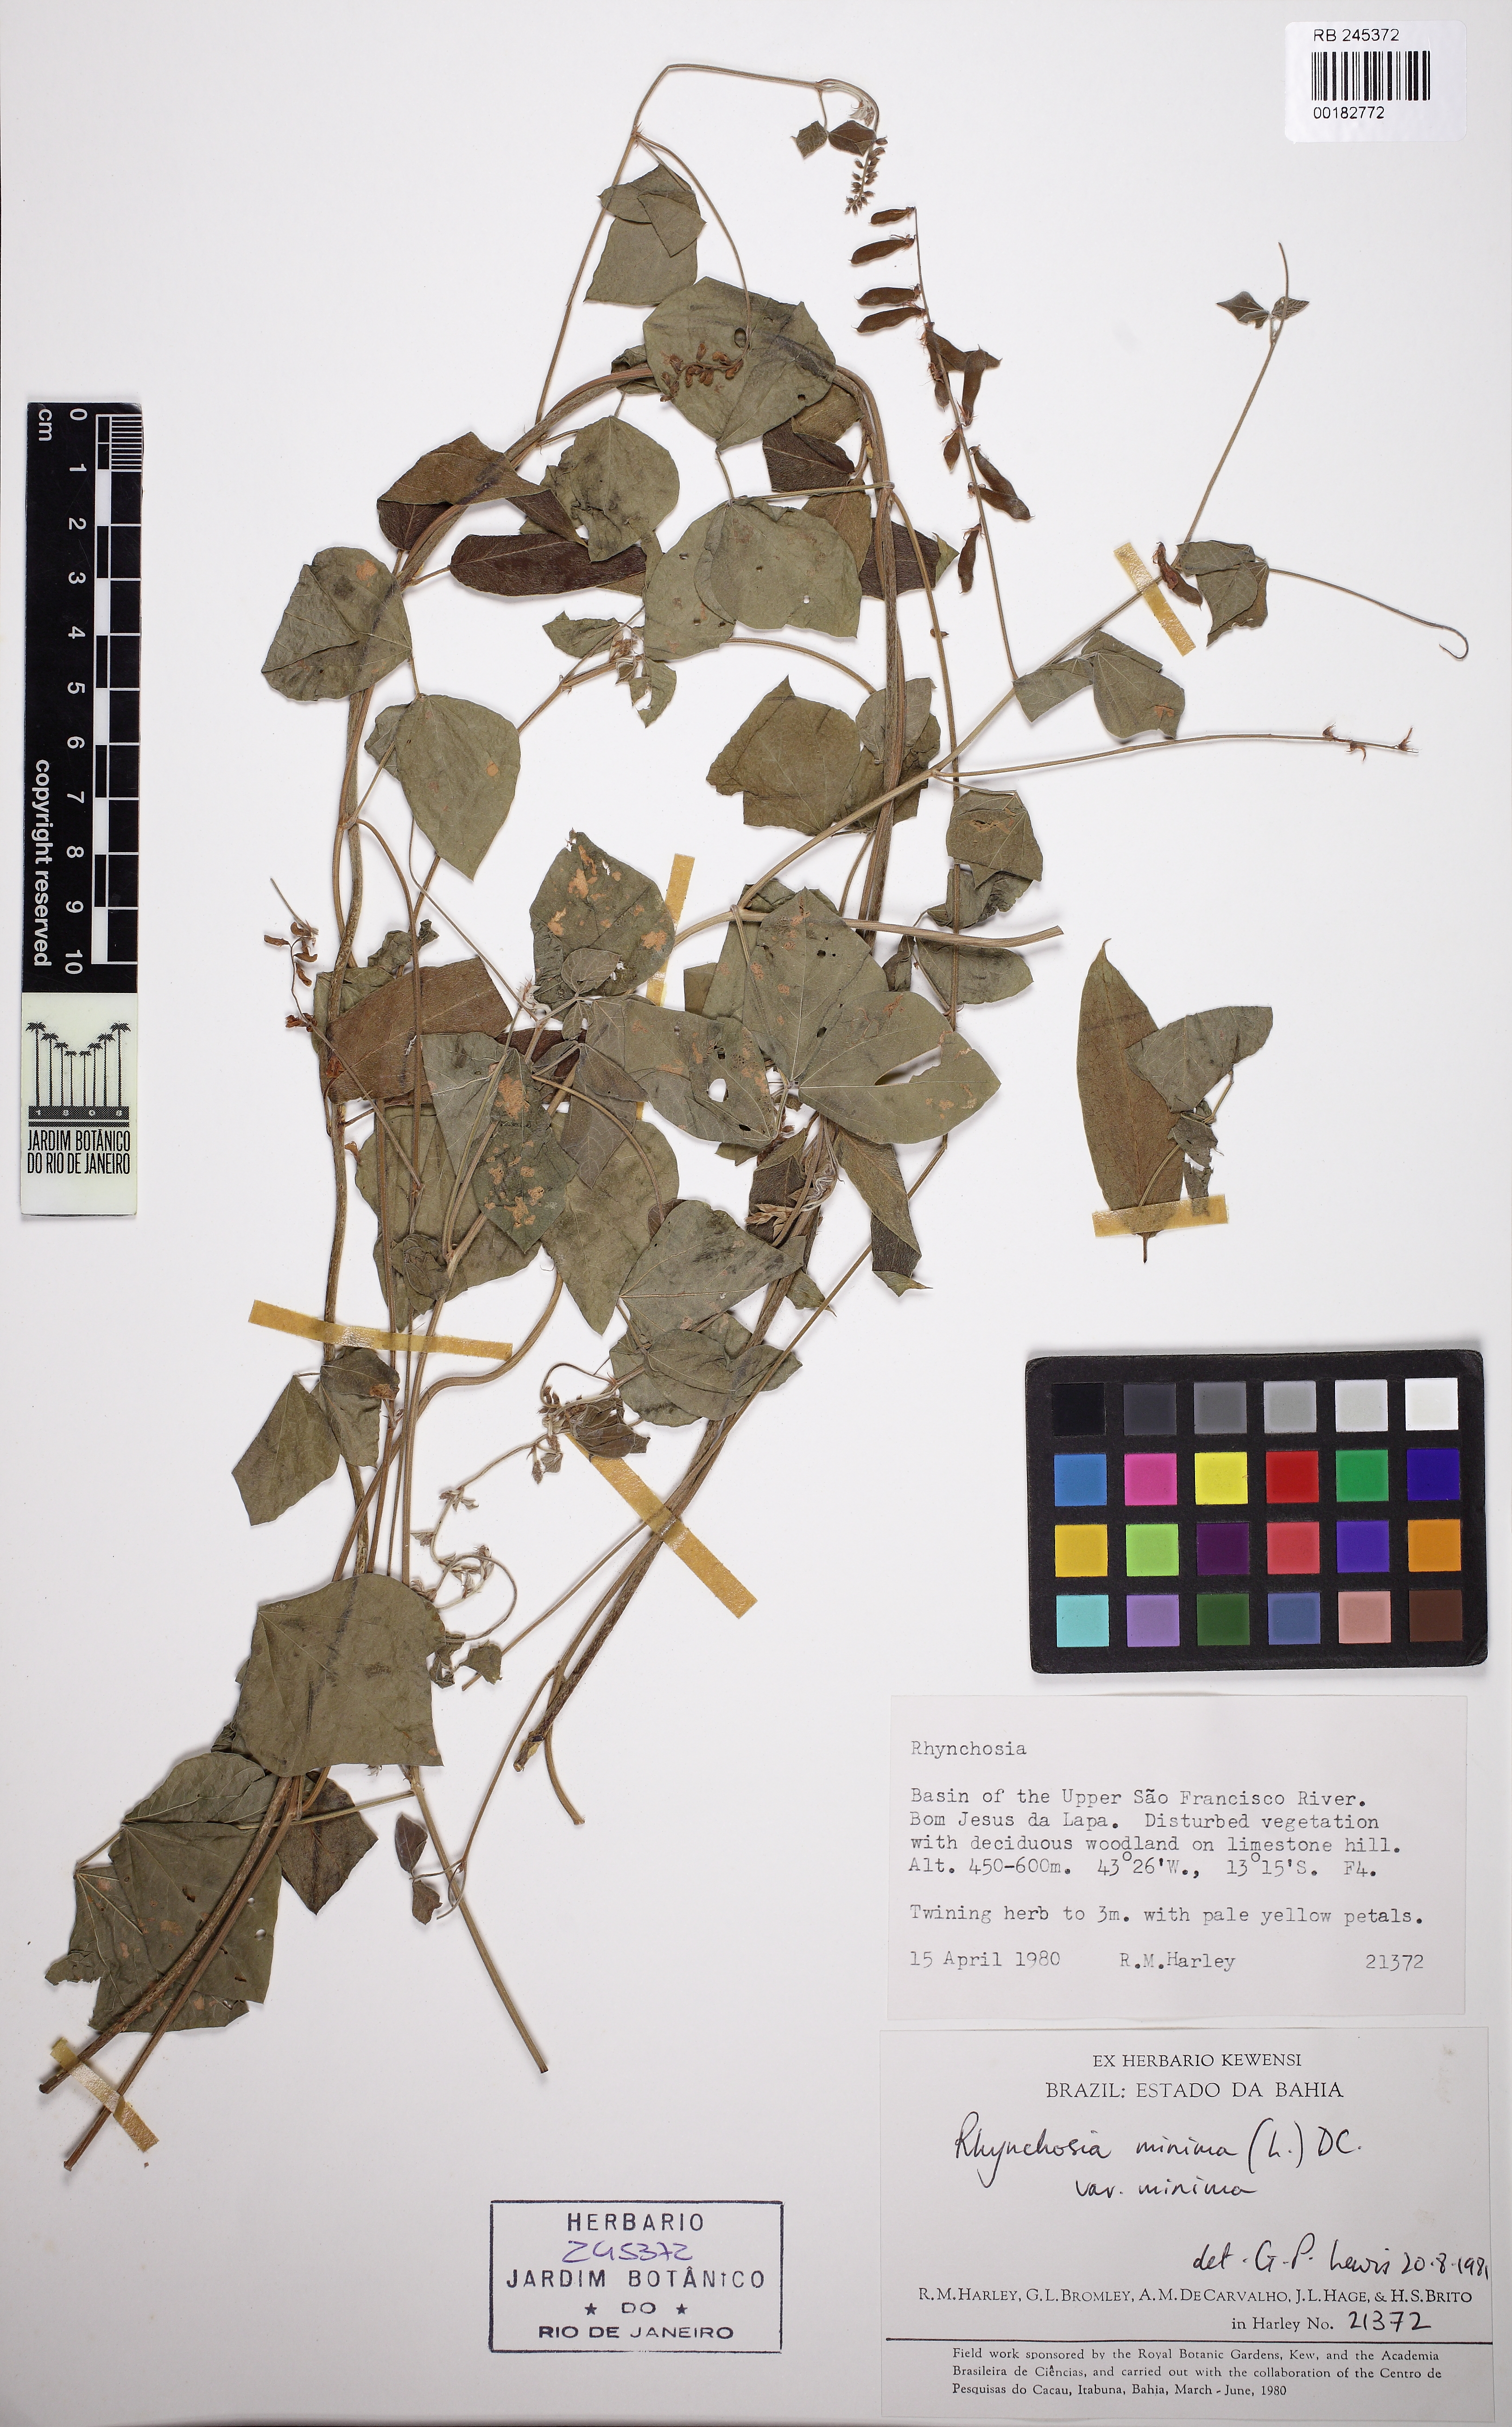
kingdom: Plantae
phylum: Tracheophyta
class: Magnoliopsida
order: Fabales
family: Fabaceae
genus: Rhynchosia
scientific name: Rhynchosia minima
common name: Least snoutbean
